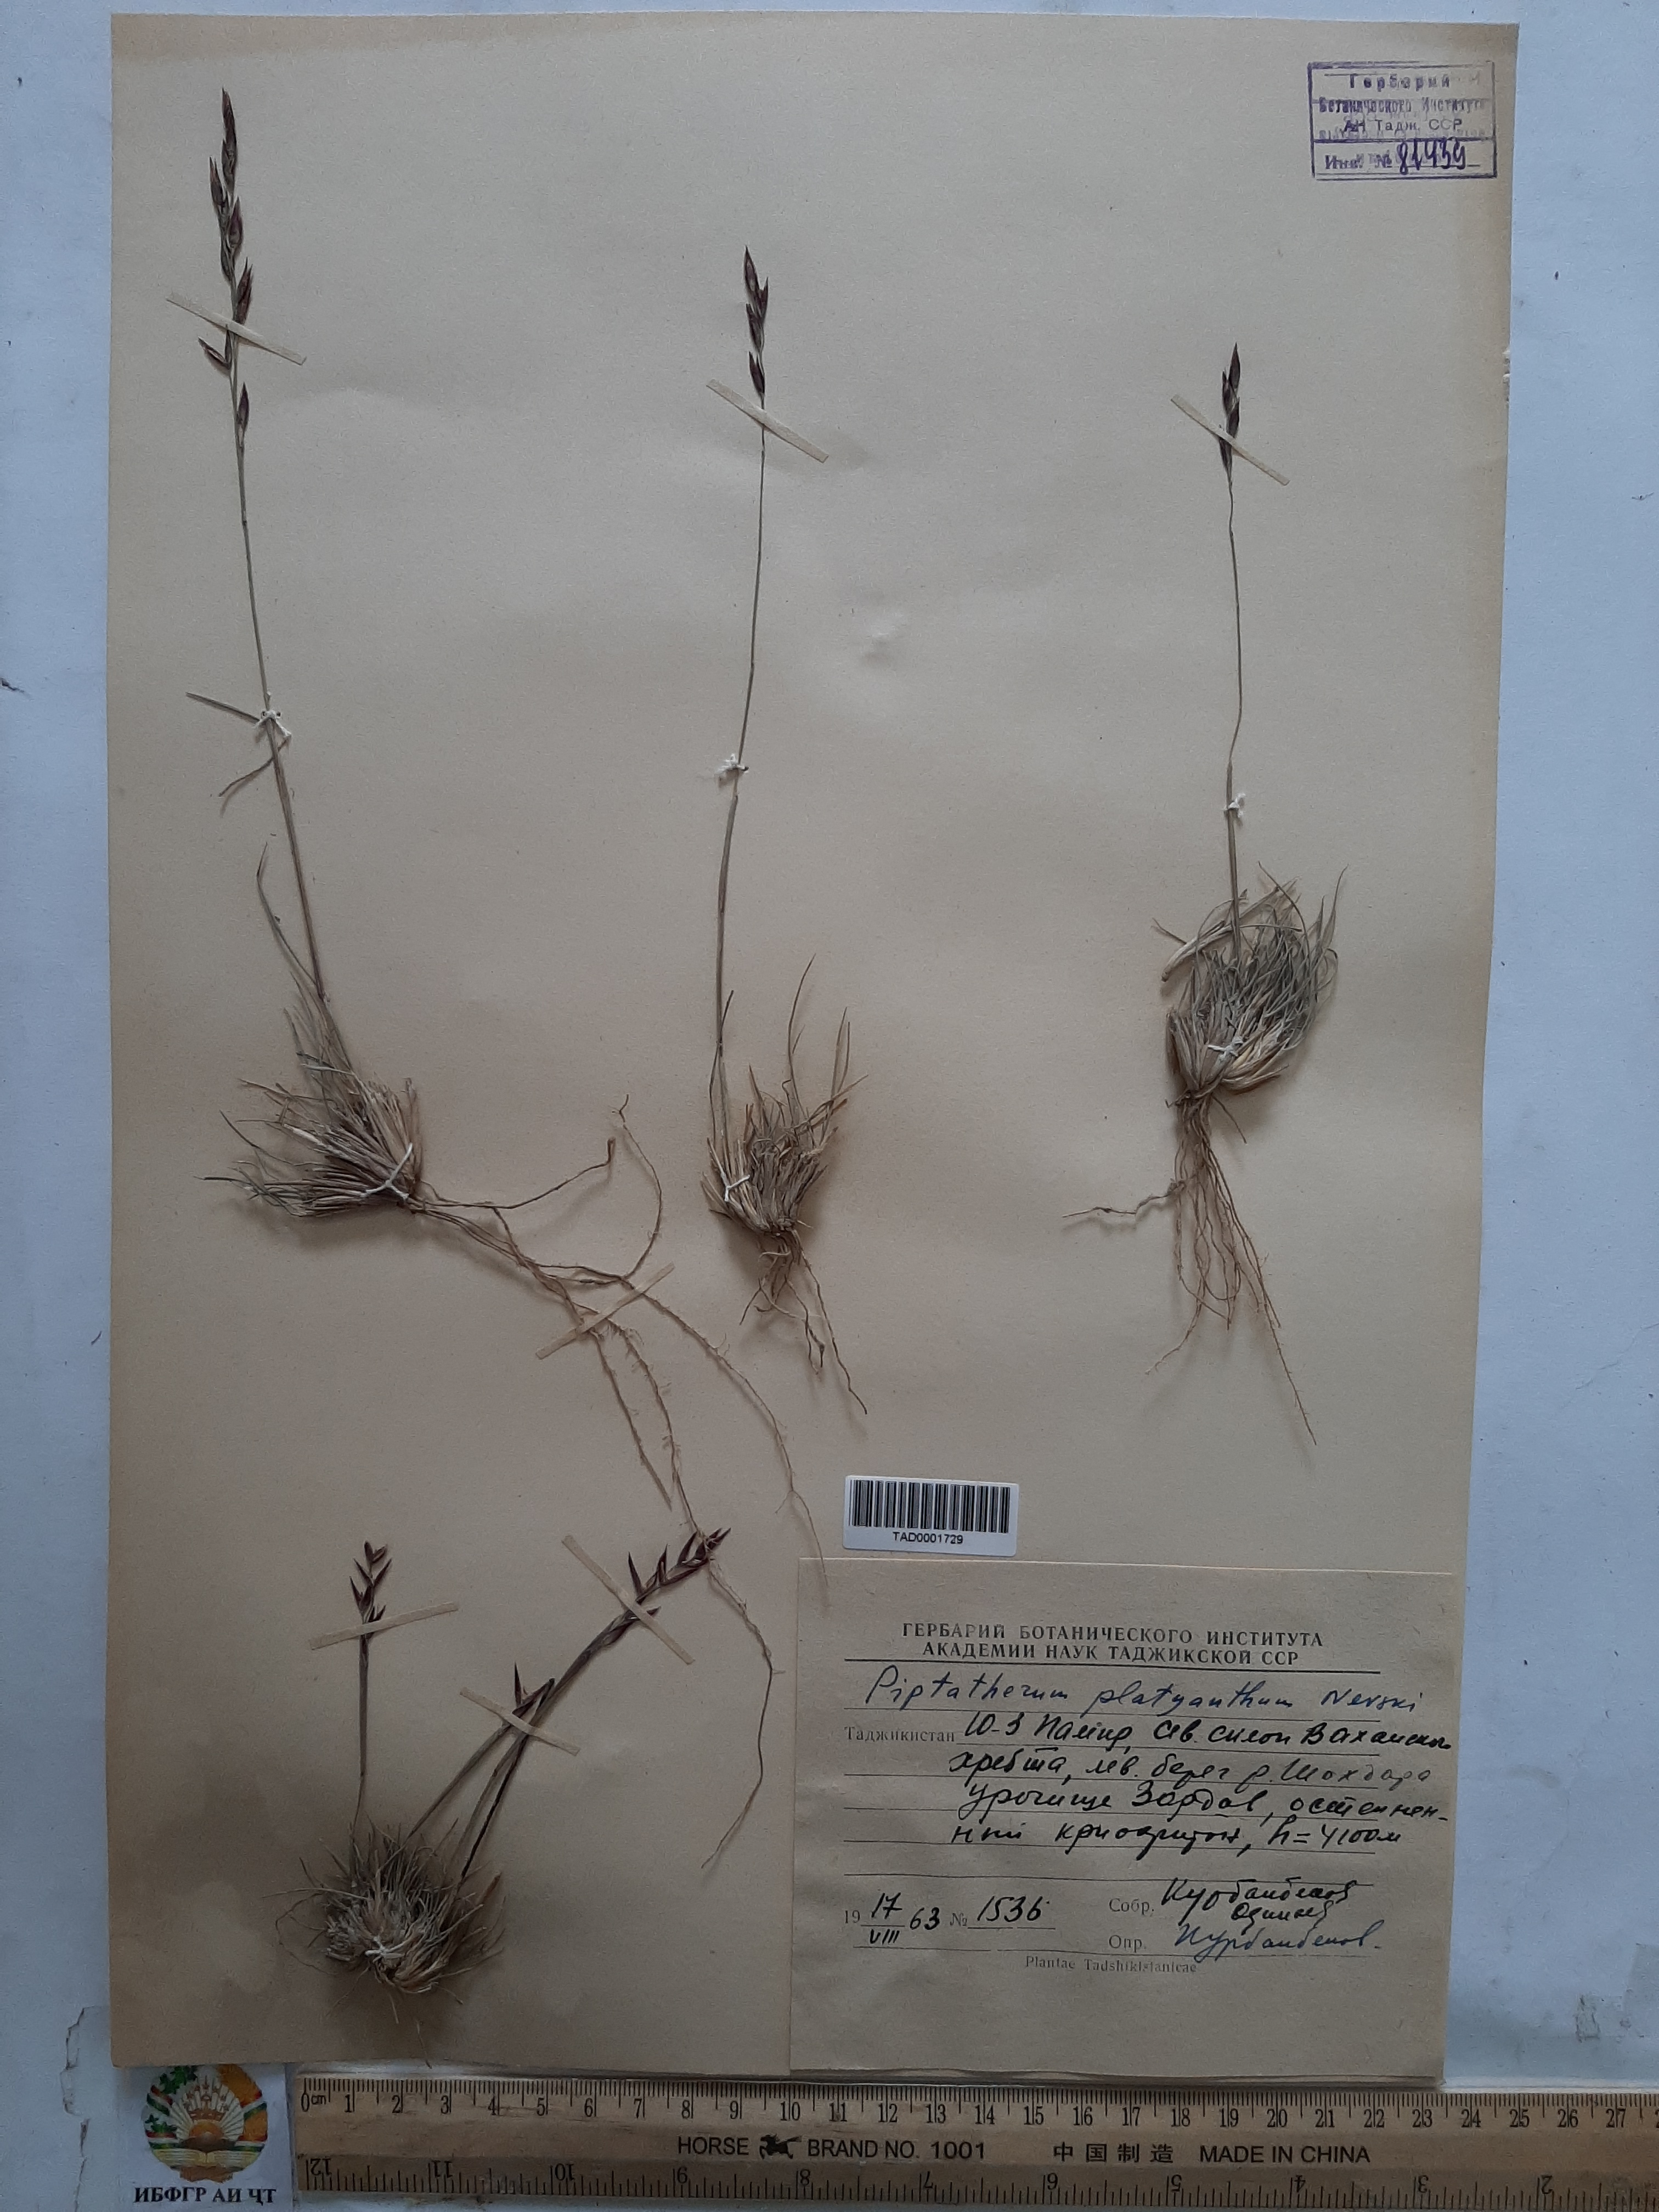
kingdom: Plantae
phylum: Tracheophyta
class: Liliopsida
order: Poales
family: Poaceae
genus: Piptatherum
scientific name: Piptatherum pamiralaicum
